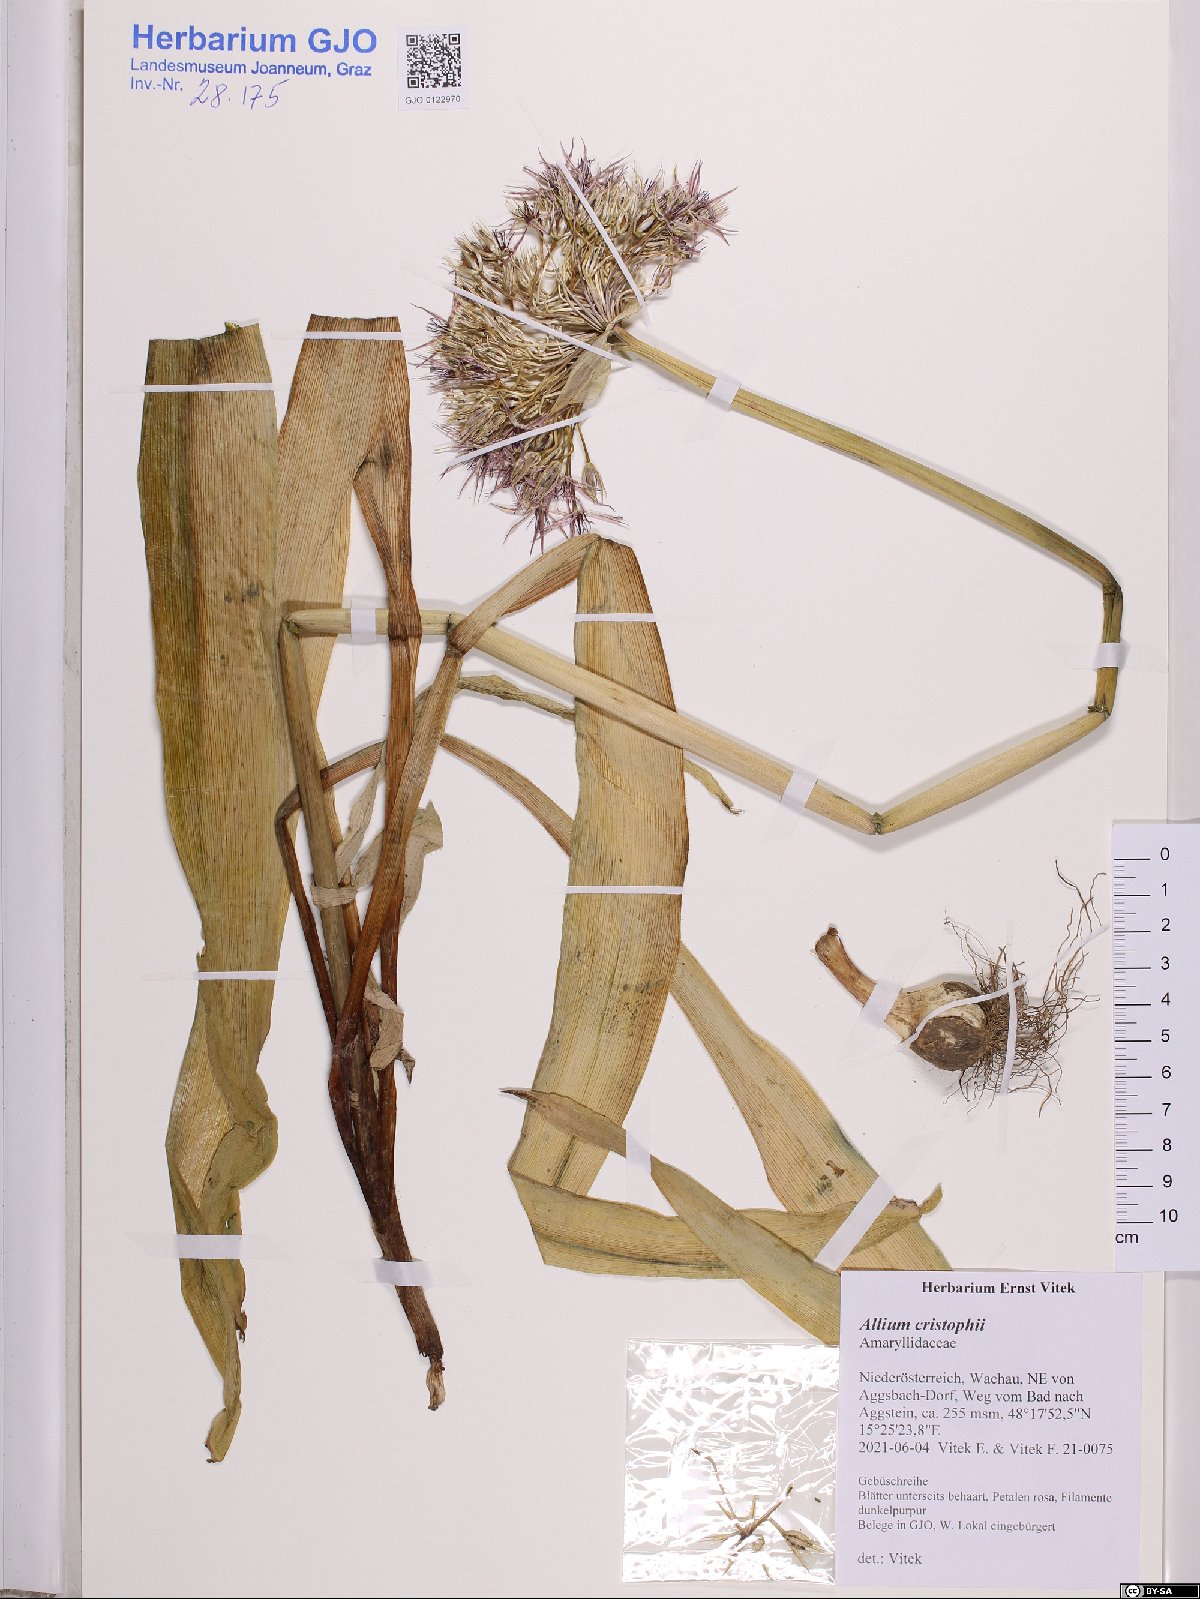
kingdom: Plantae
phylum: Tracheophyta
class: Liliopsida
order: Asparagales
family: Amaryllidaceae
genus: Allium
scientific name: Allium cristophii
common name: Persian onion
